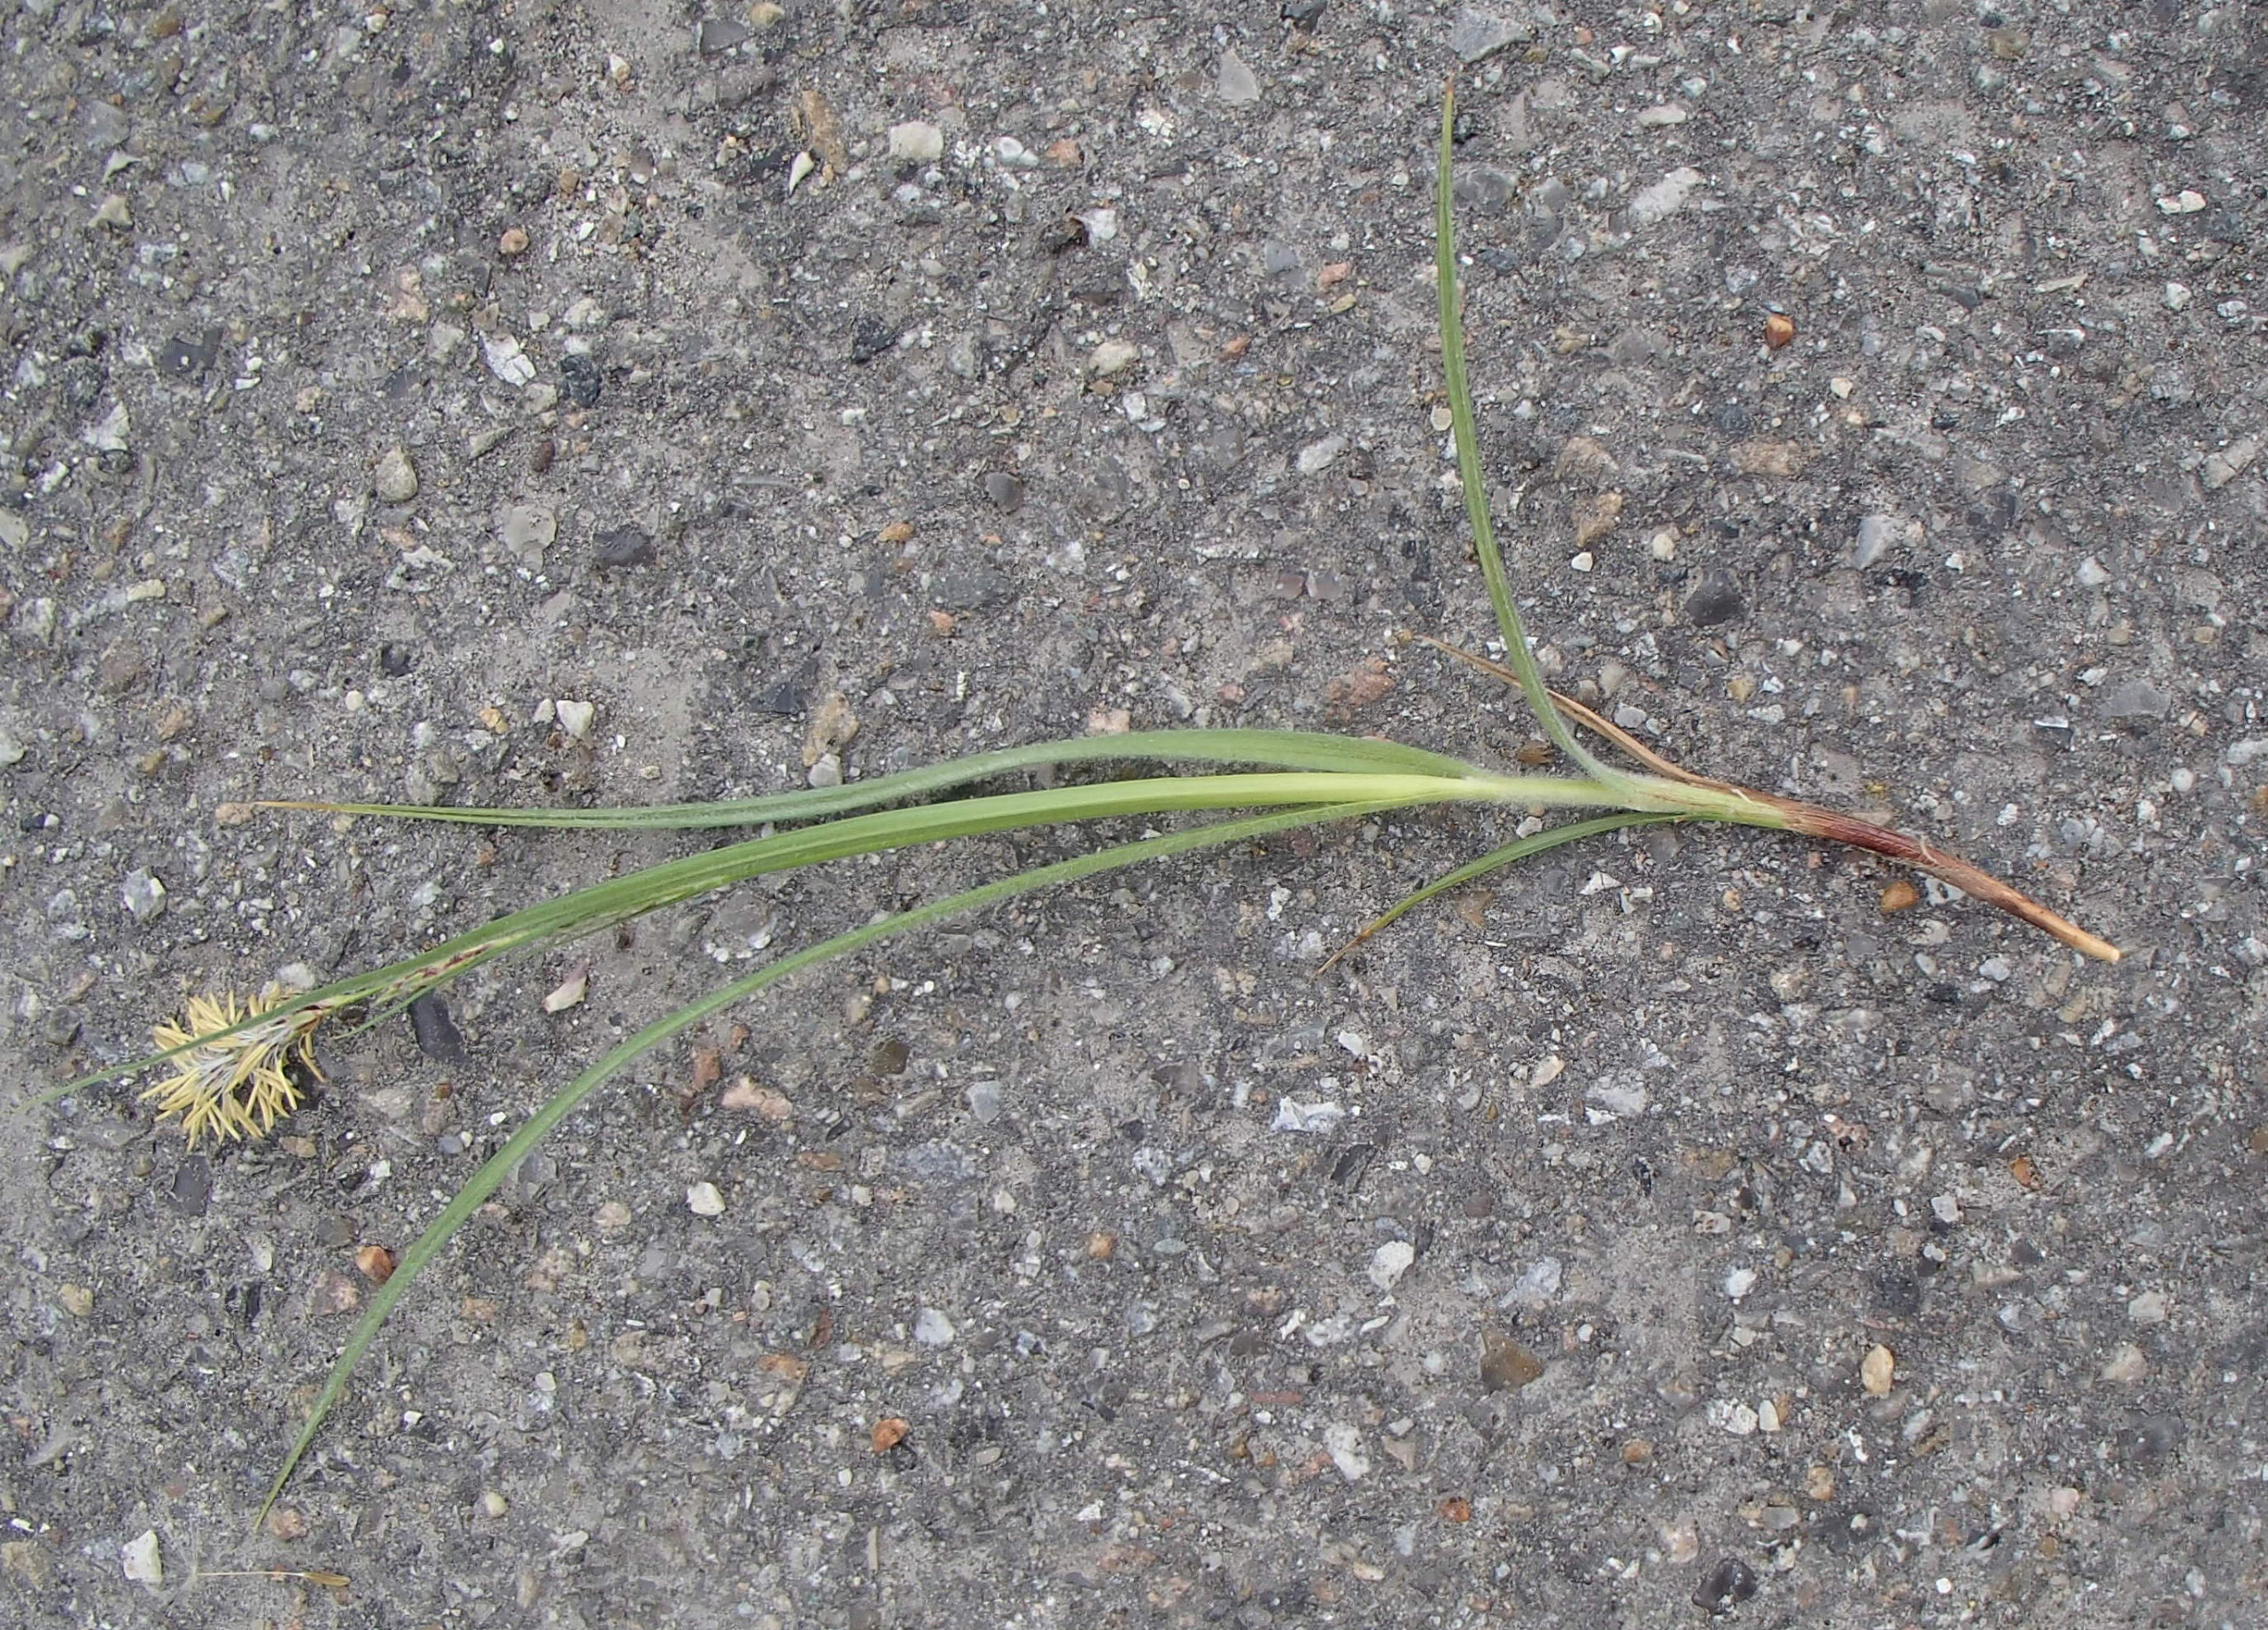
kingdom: Plantae
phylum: Tracheophyta
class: Liliopsida
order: Poales
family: Cyperaceae
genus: Carex
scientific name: Carex hirta
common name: Håret star
